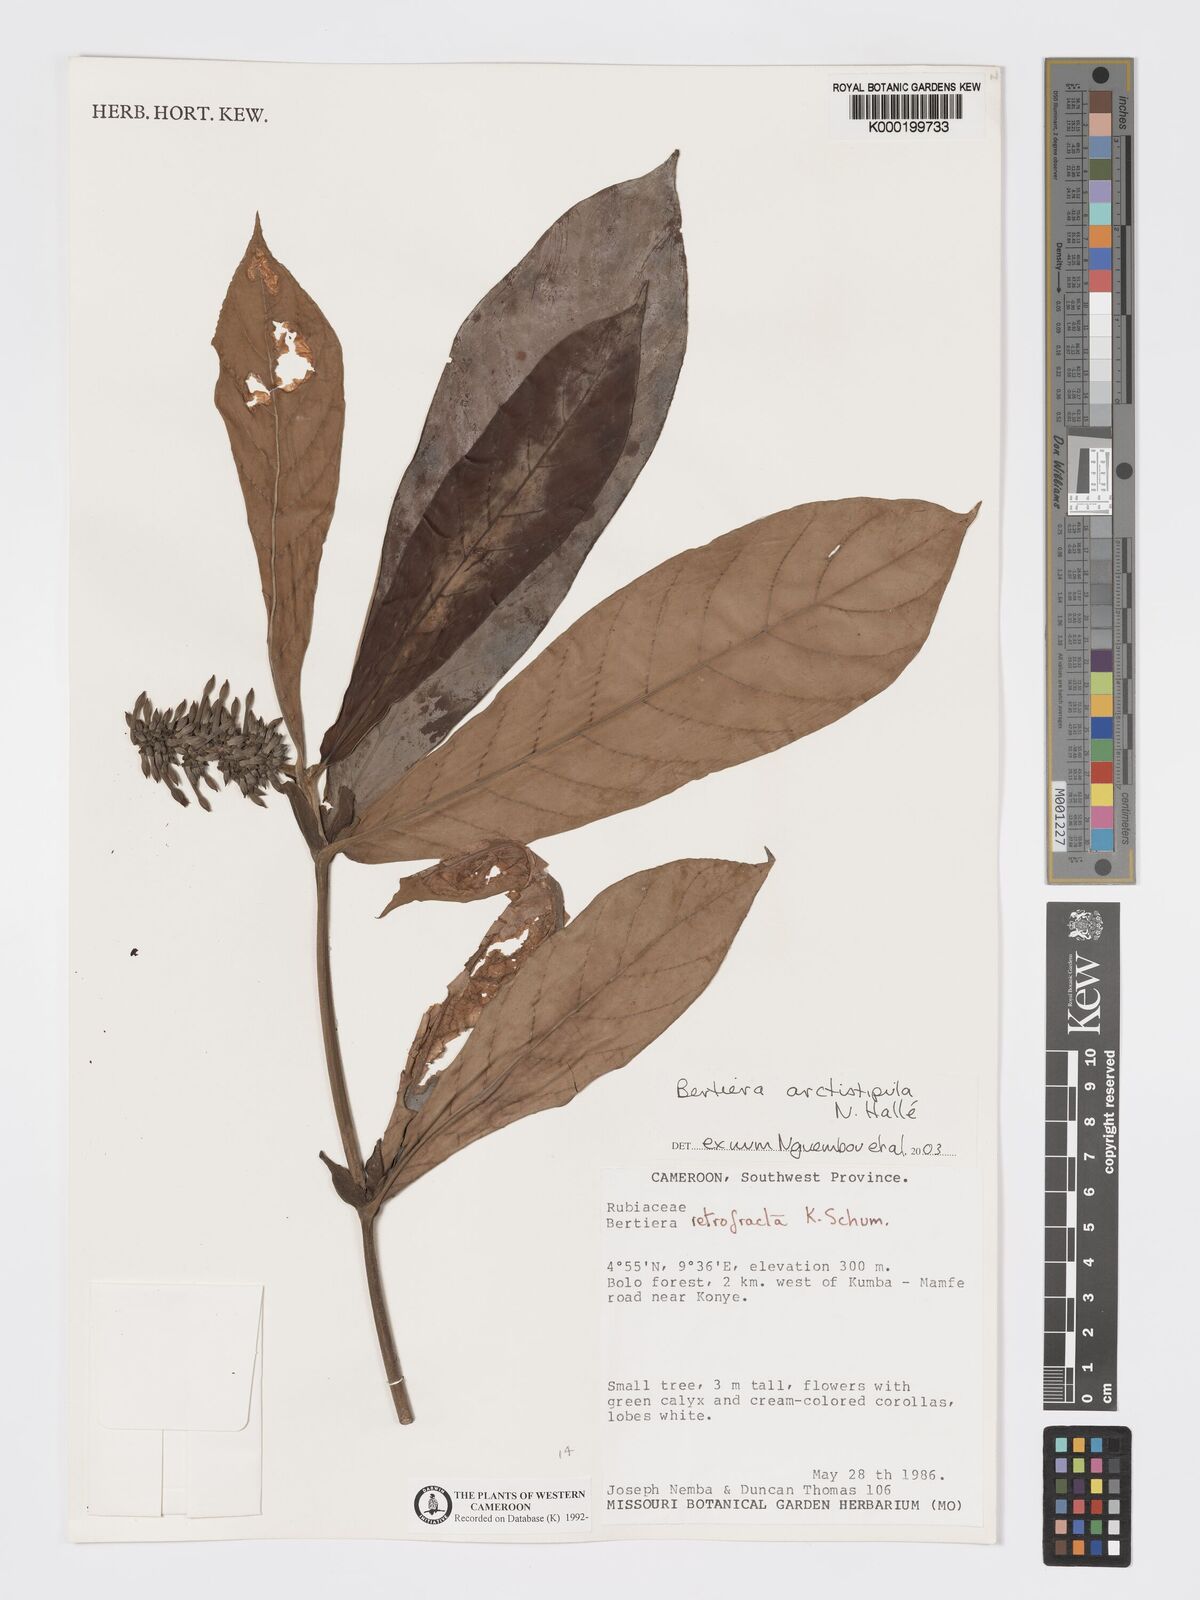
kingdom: Plantae
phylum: Tracheophyta
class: Magnoliopsida
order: Gentianales
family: Rubiaceae
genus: Bertiera
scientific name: Bertiera arctistipula
